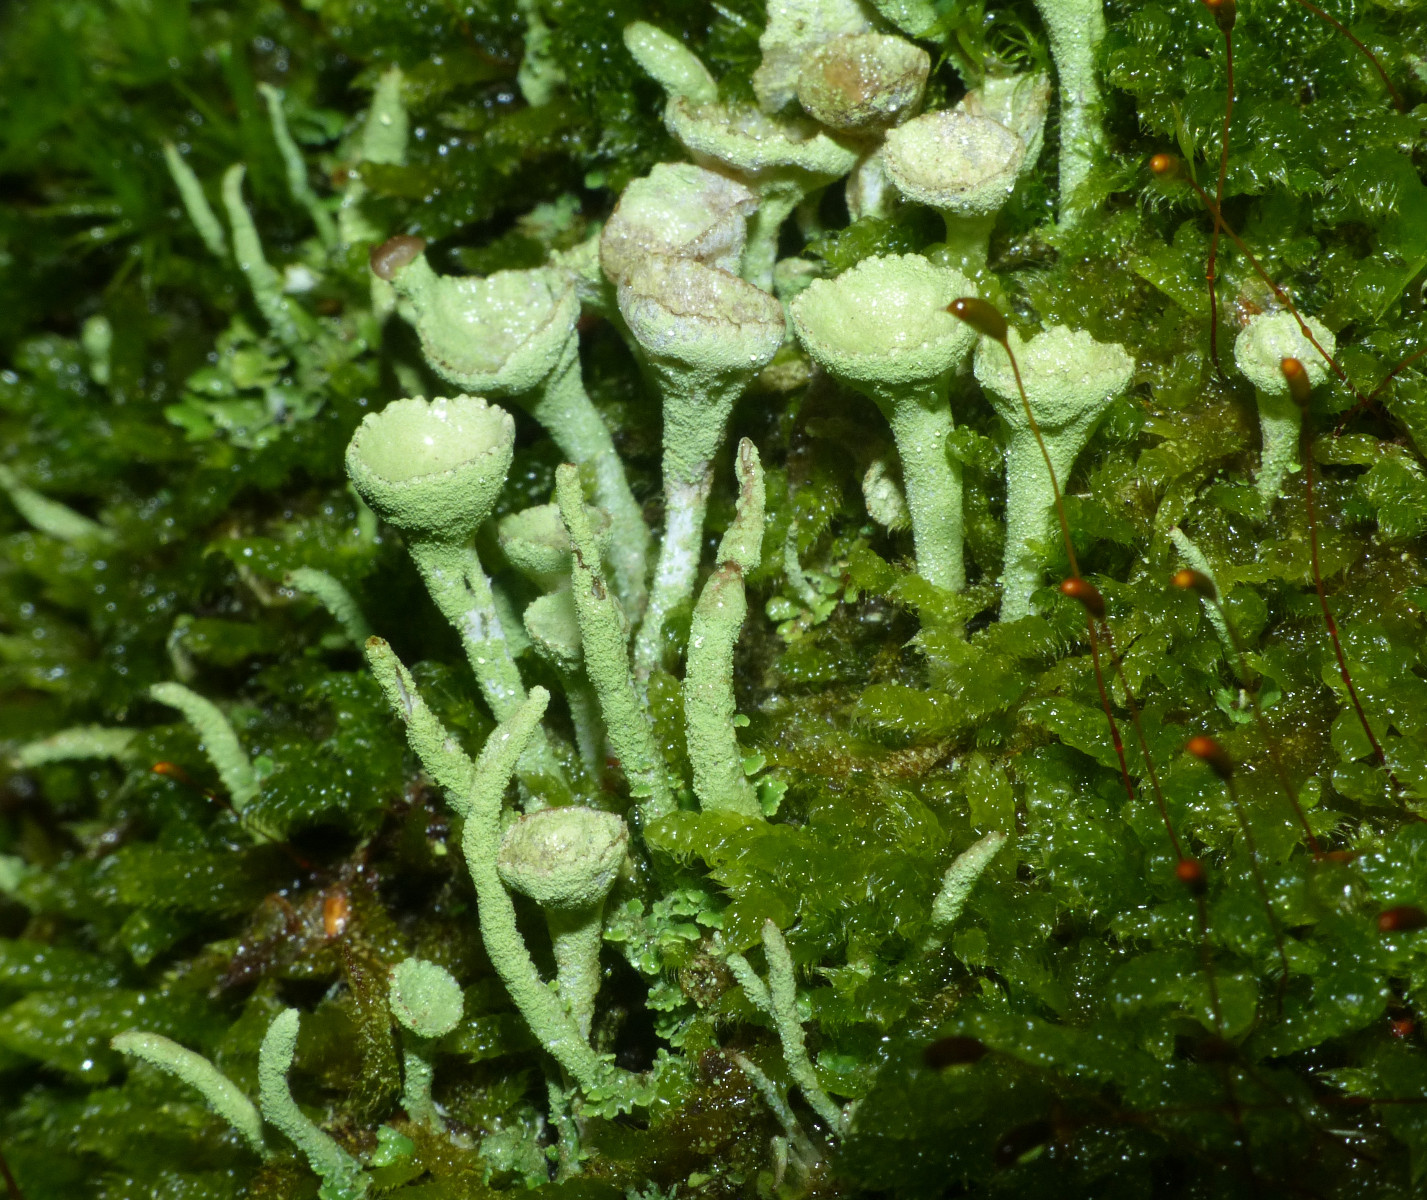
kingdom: Fungi
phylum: Ascomycota
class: Lecanoromycetes
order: Lecanorales
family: Cladoniaceae
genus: Cladonia
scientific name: Cladonia fimbriata
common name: bleggrøn bægerlav
